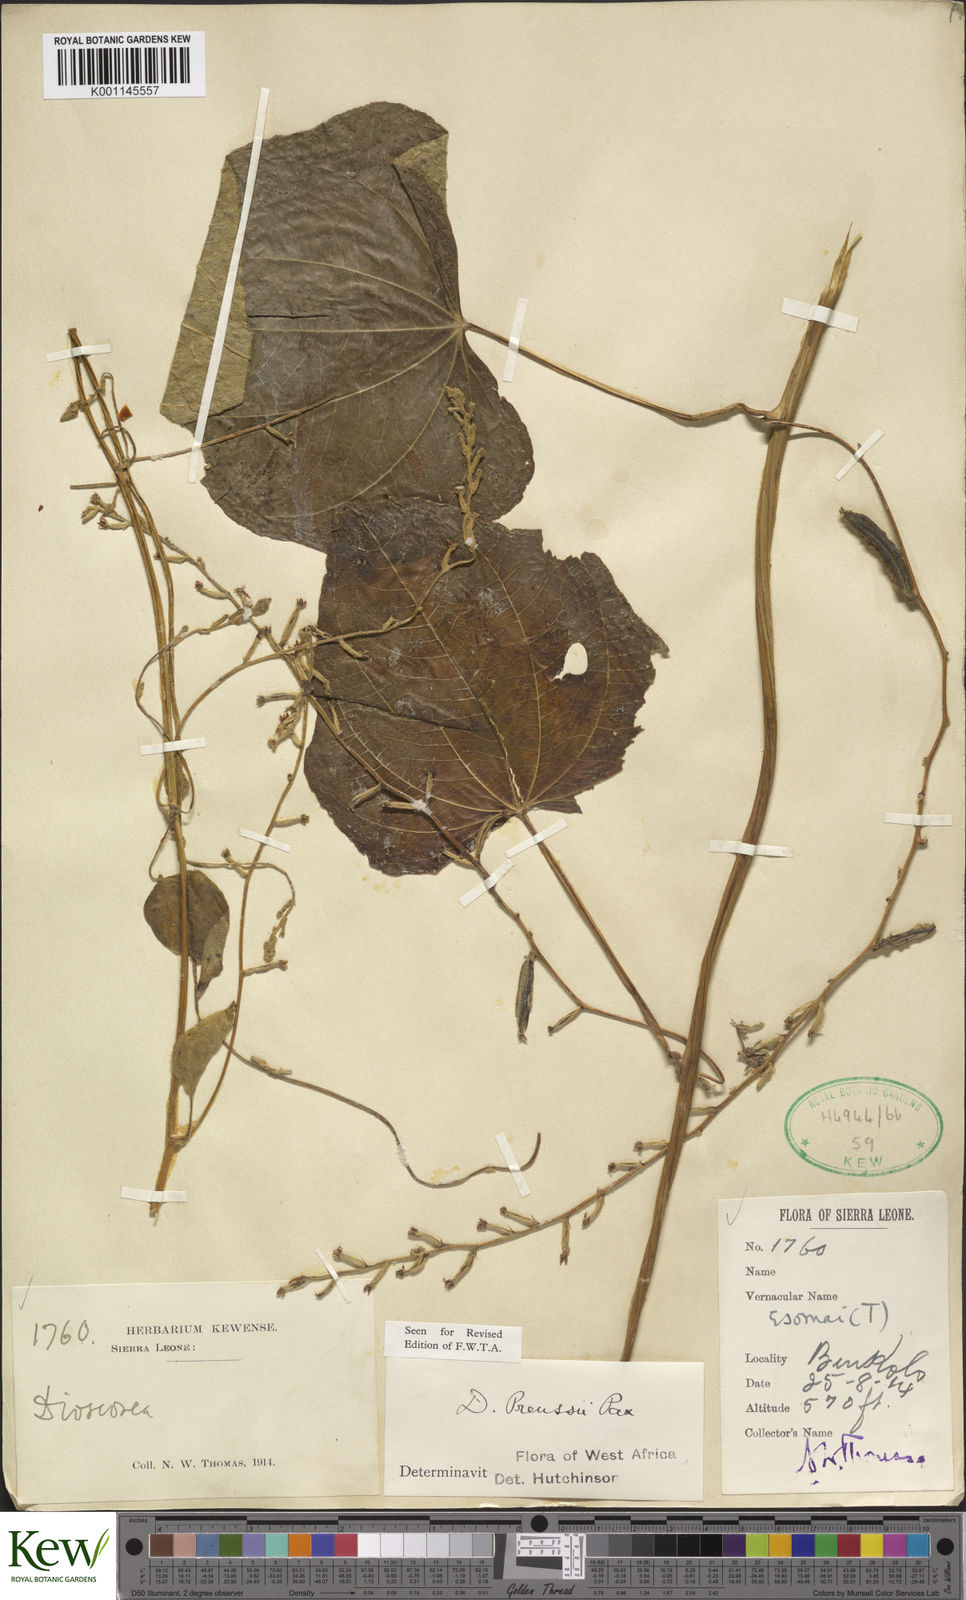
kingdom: Plantae
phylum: Tracheophyta
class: Liliopsida
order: Dioscoreales
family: Dioscoreaceae
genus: Dioscorea
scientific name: Dioscorea preussii
